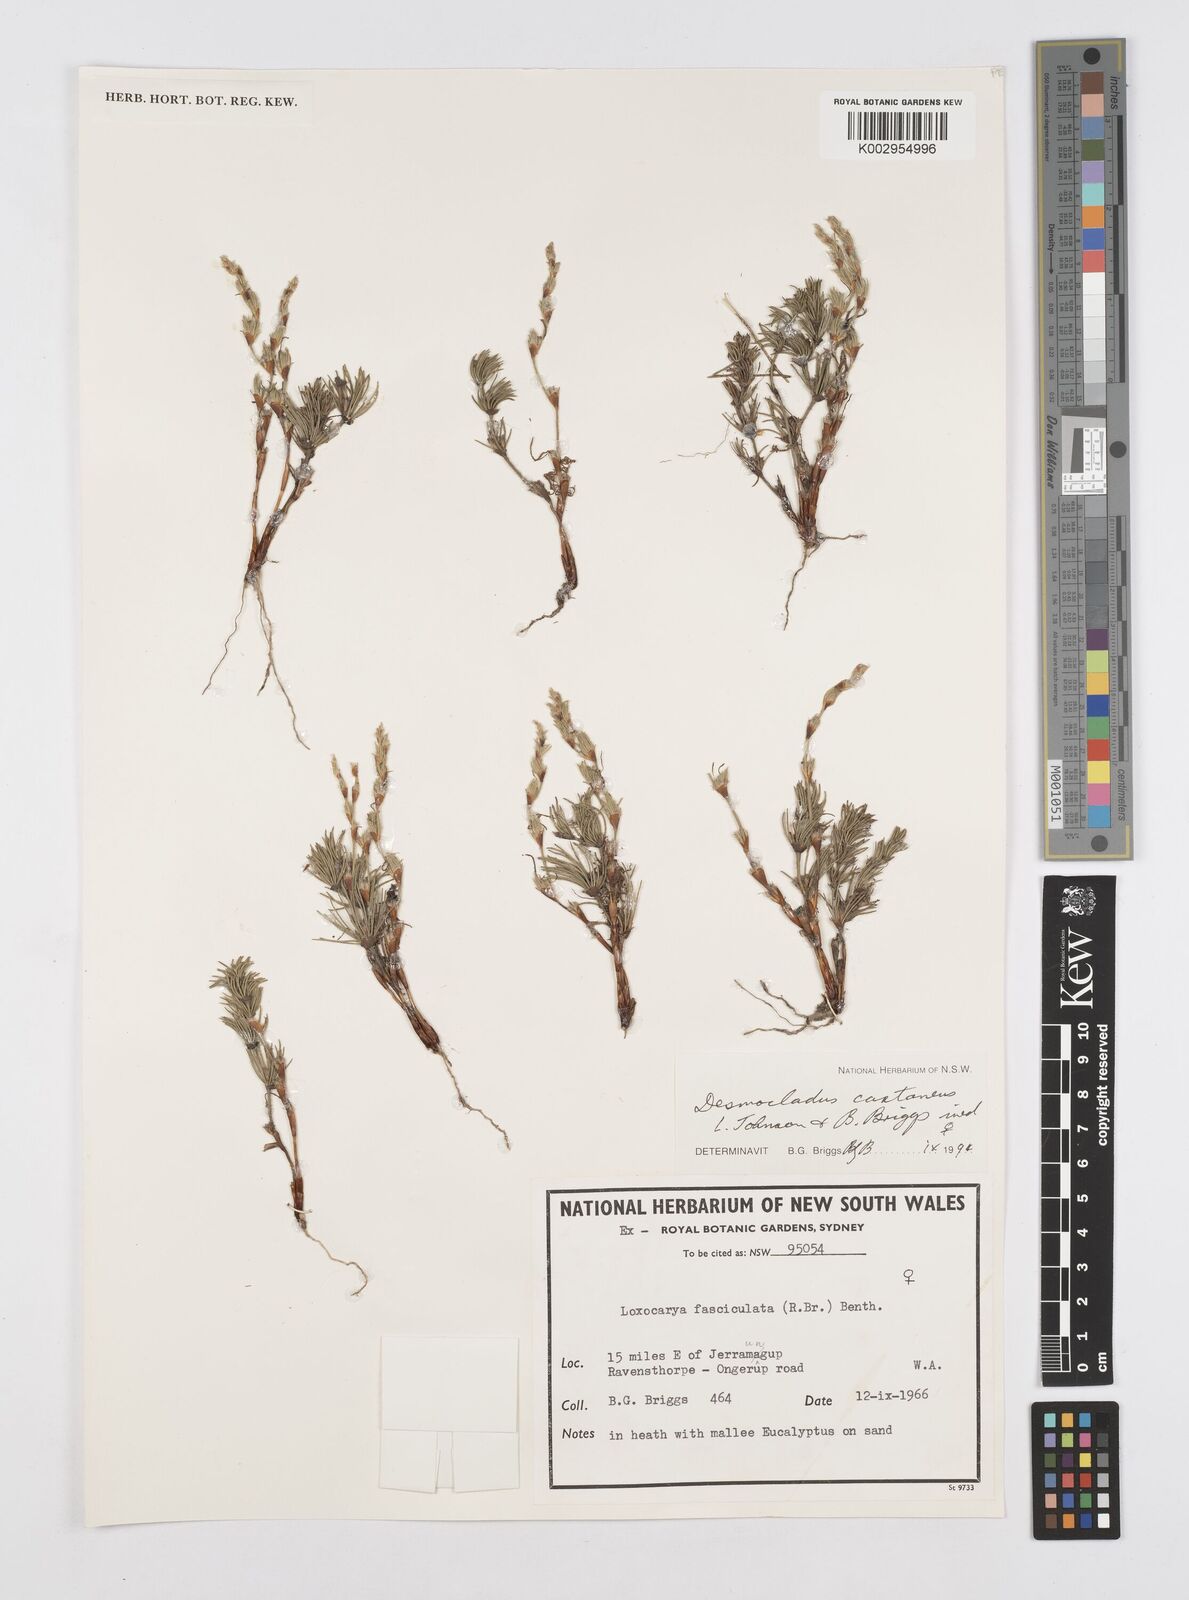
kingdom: Plantae
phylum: Tracheophyta
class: Liliopsida
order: Poales
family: Restionaceae
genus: Desmocladus
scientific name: Desmocladus castaneus
